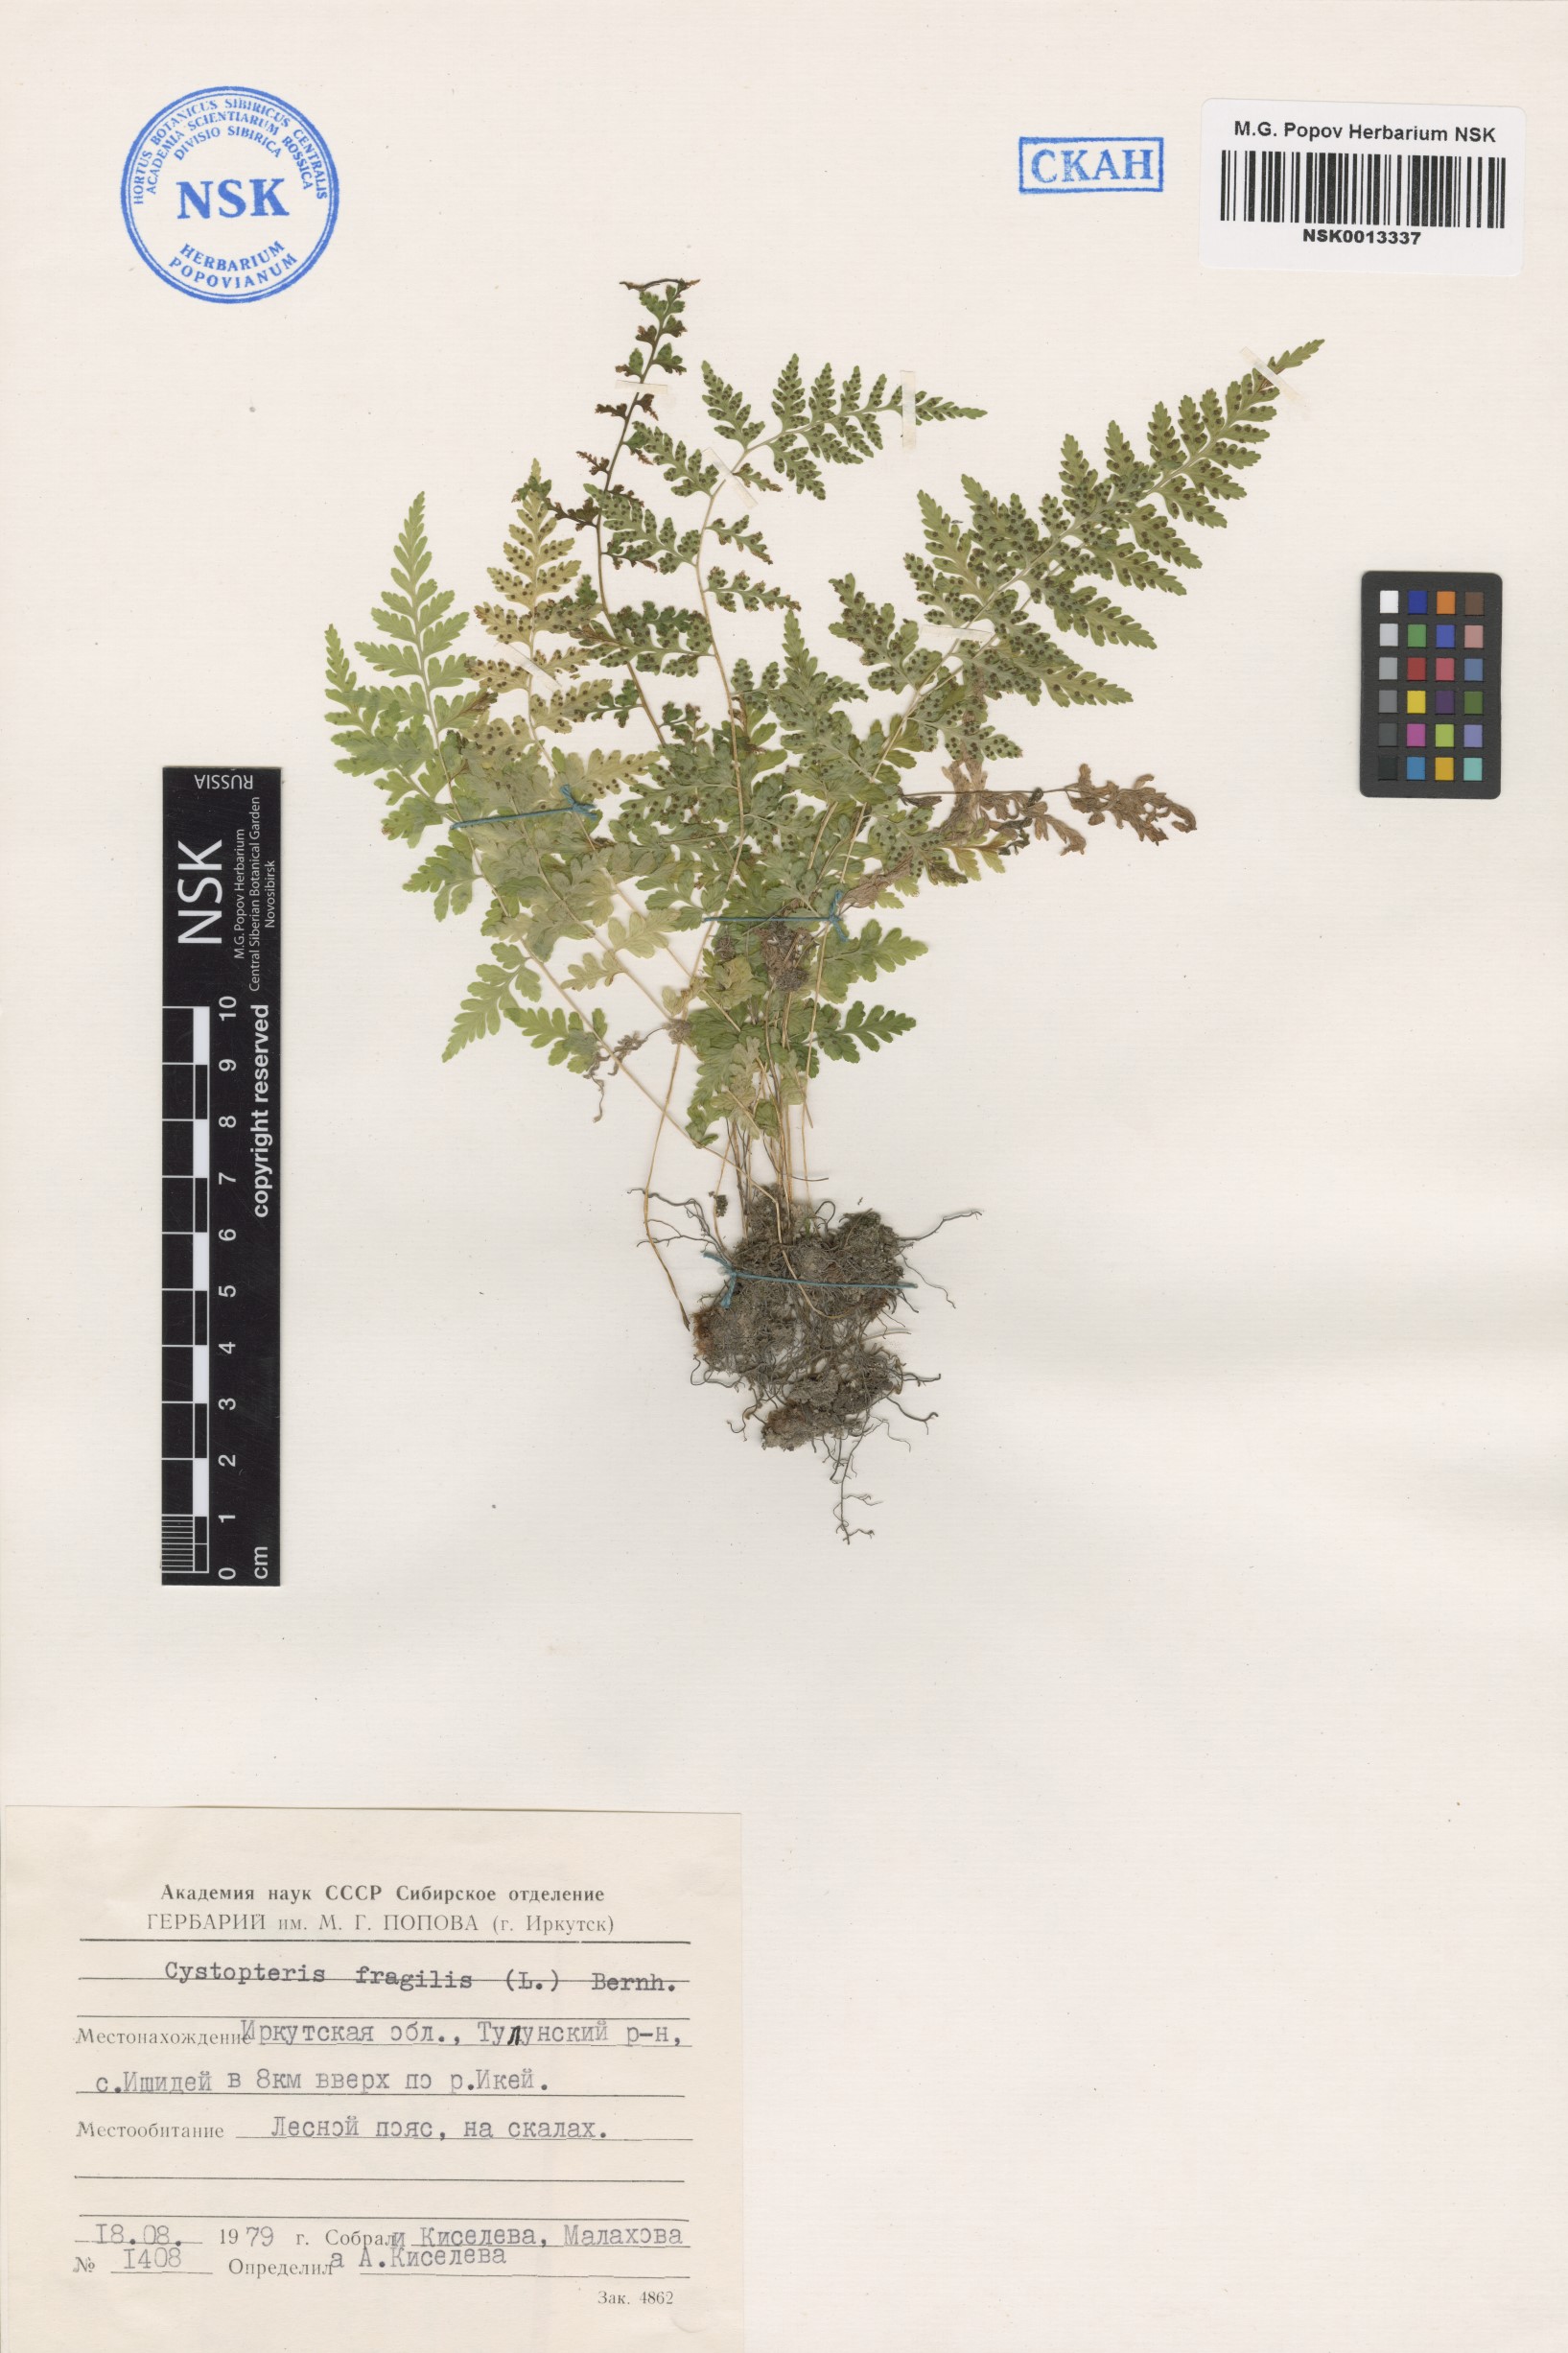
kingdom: Plantae
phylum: Tracheophyta
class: Polypodiopsida
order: Polypodiales
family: Cystopteridaceae
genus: Cystopteris
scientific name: Cystopteris fragilis
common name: Brittle bladder fern
